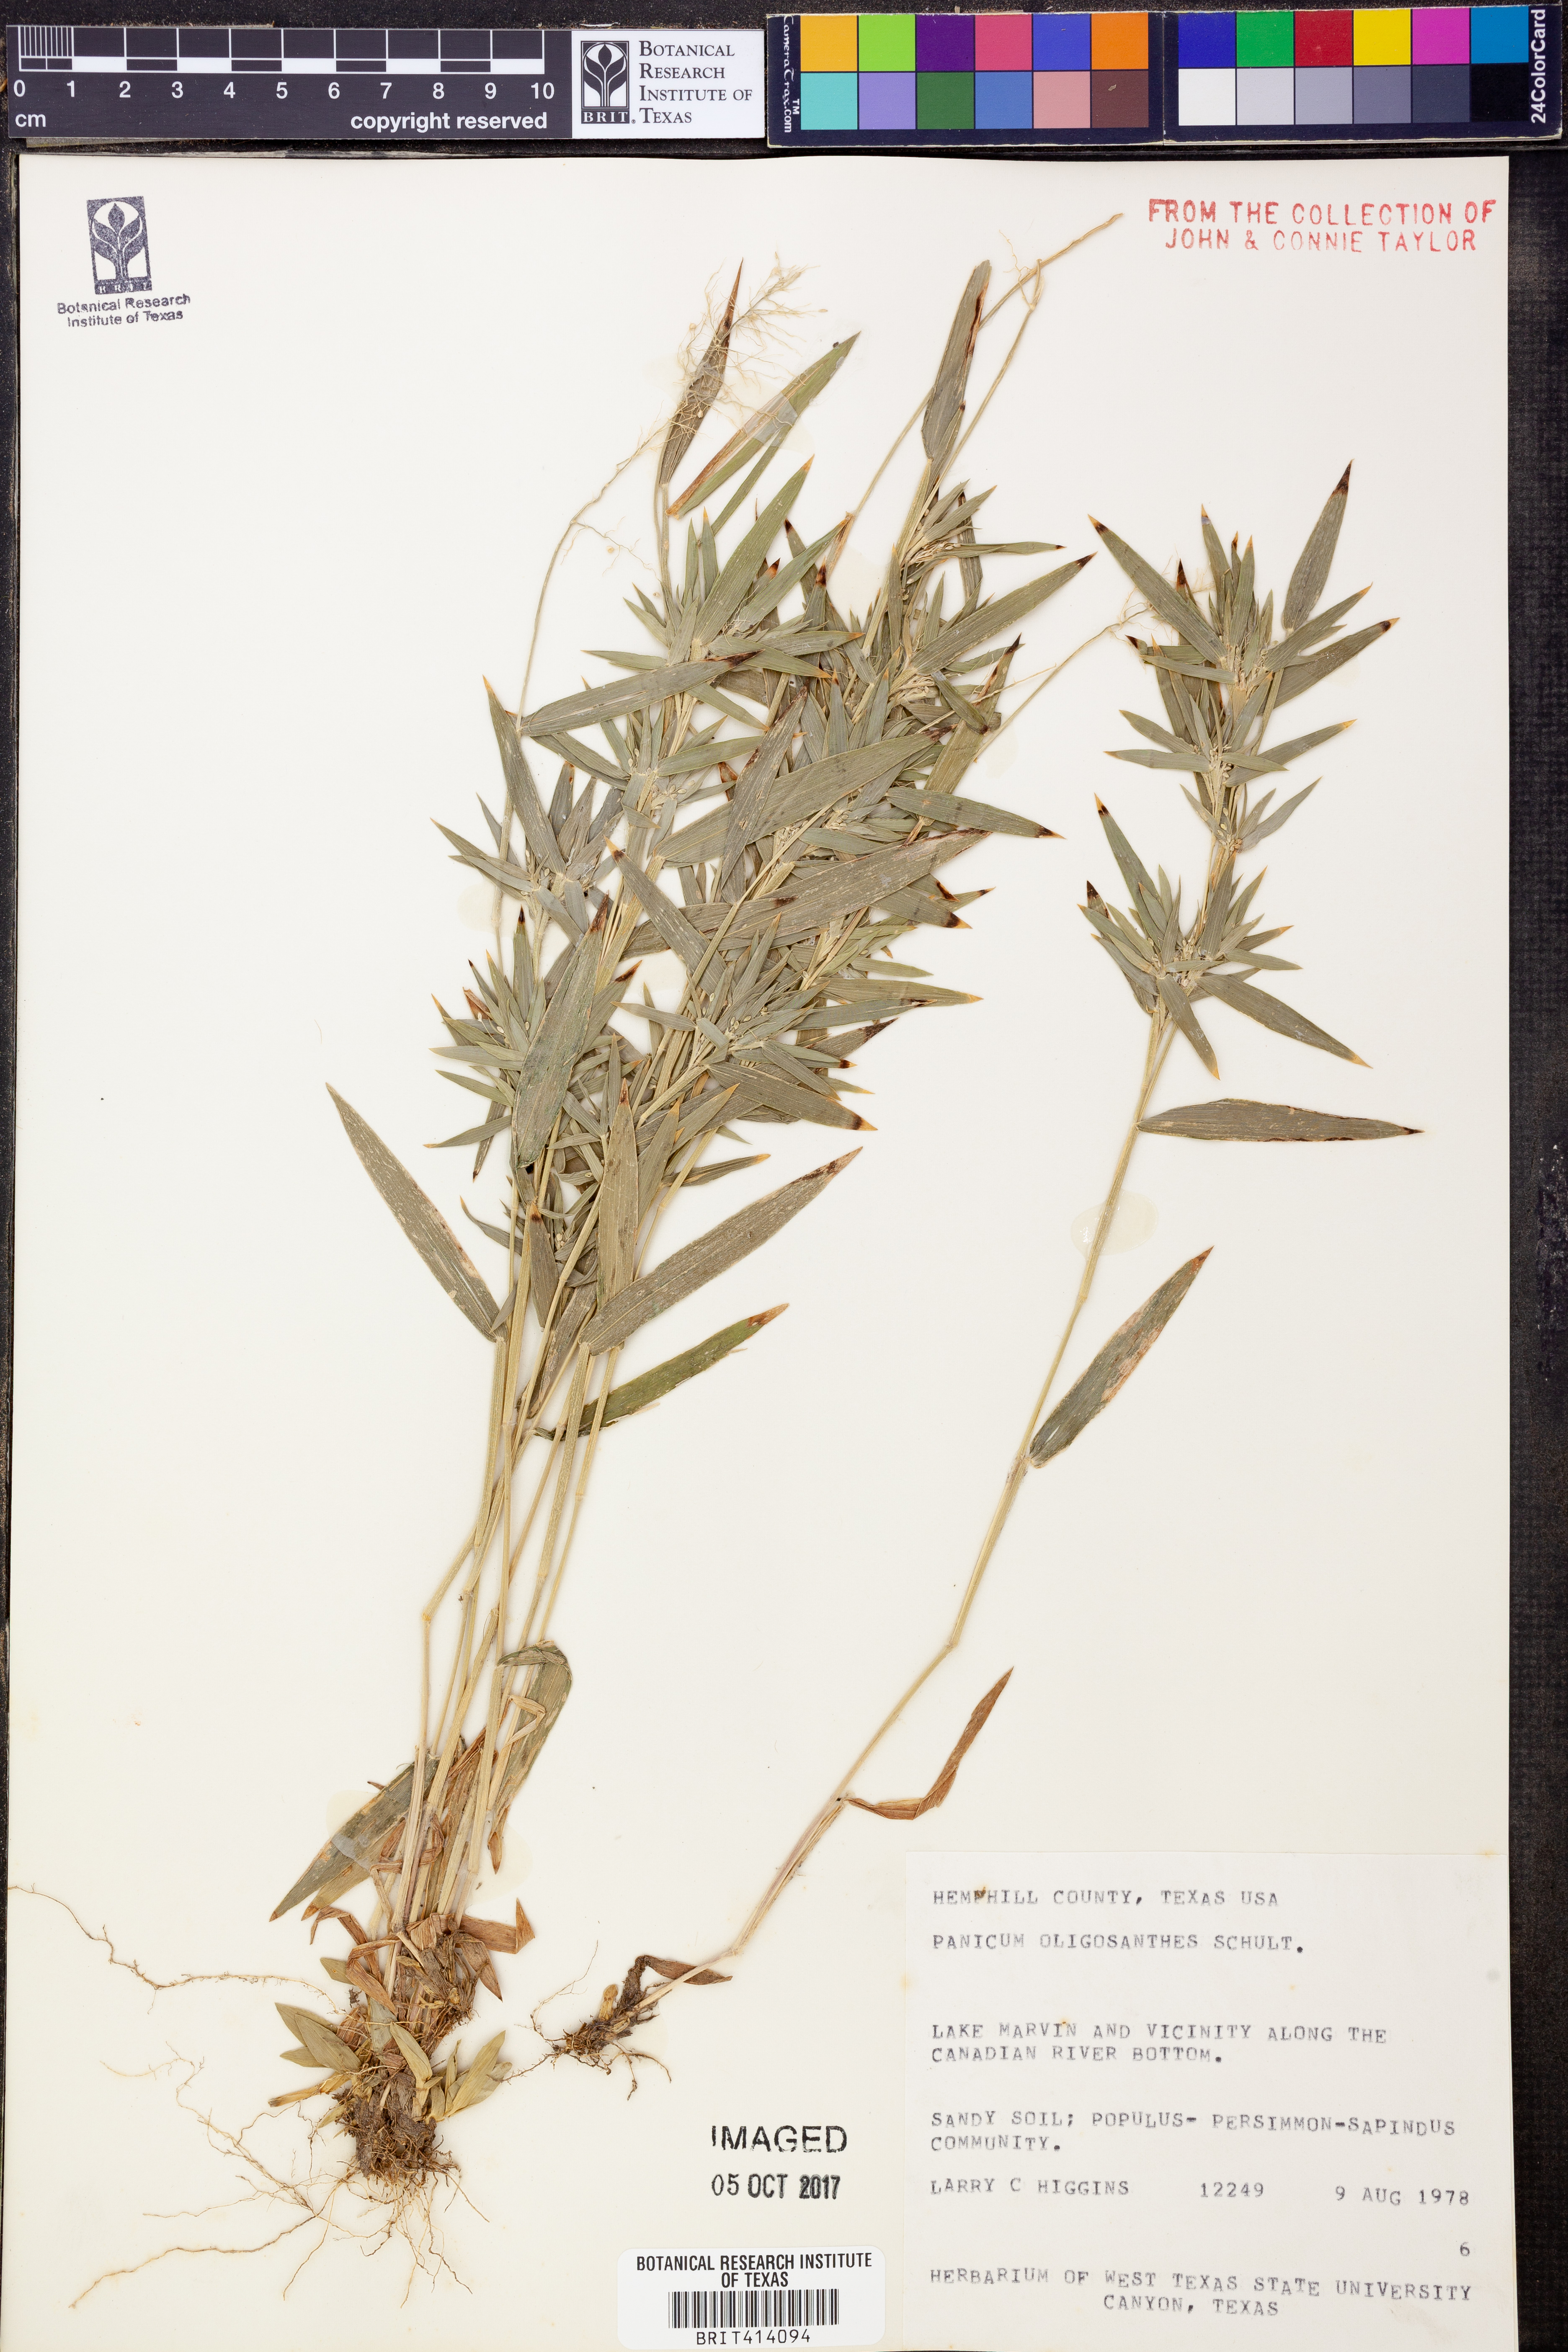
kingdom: Plantae
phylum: Tracheophyta
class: Liliopsida
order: Poales
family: Poaceae
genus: Dichanthelium
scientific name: Dichanthelium oligosanthes
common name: Few-anther obscuregrass
